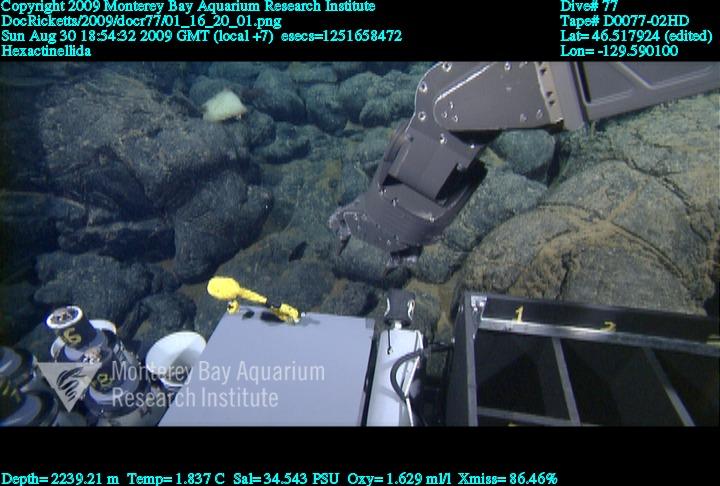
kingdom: Animalia
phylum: Porifera
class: Hexactinellida
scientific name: Hexactinellida
